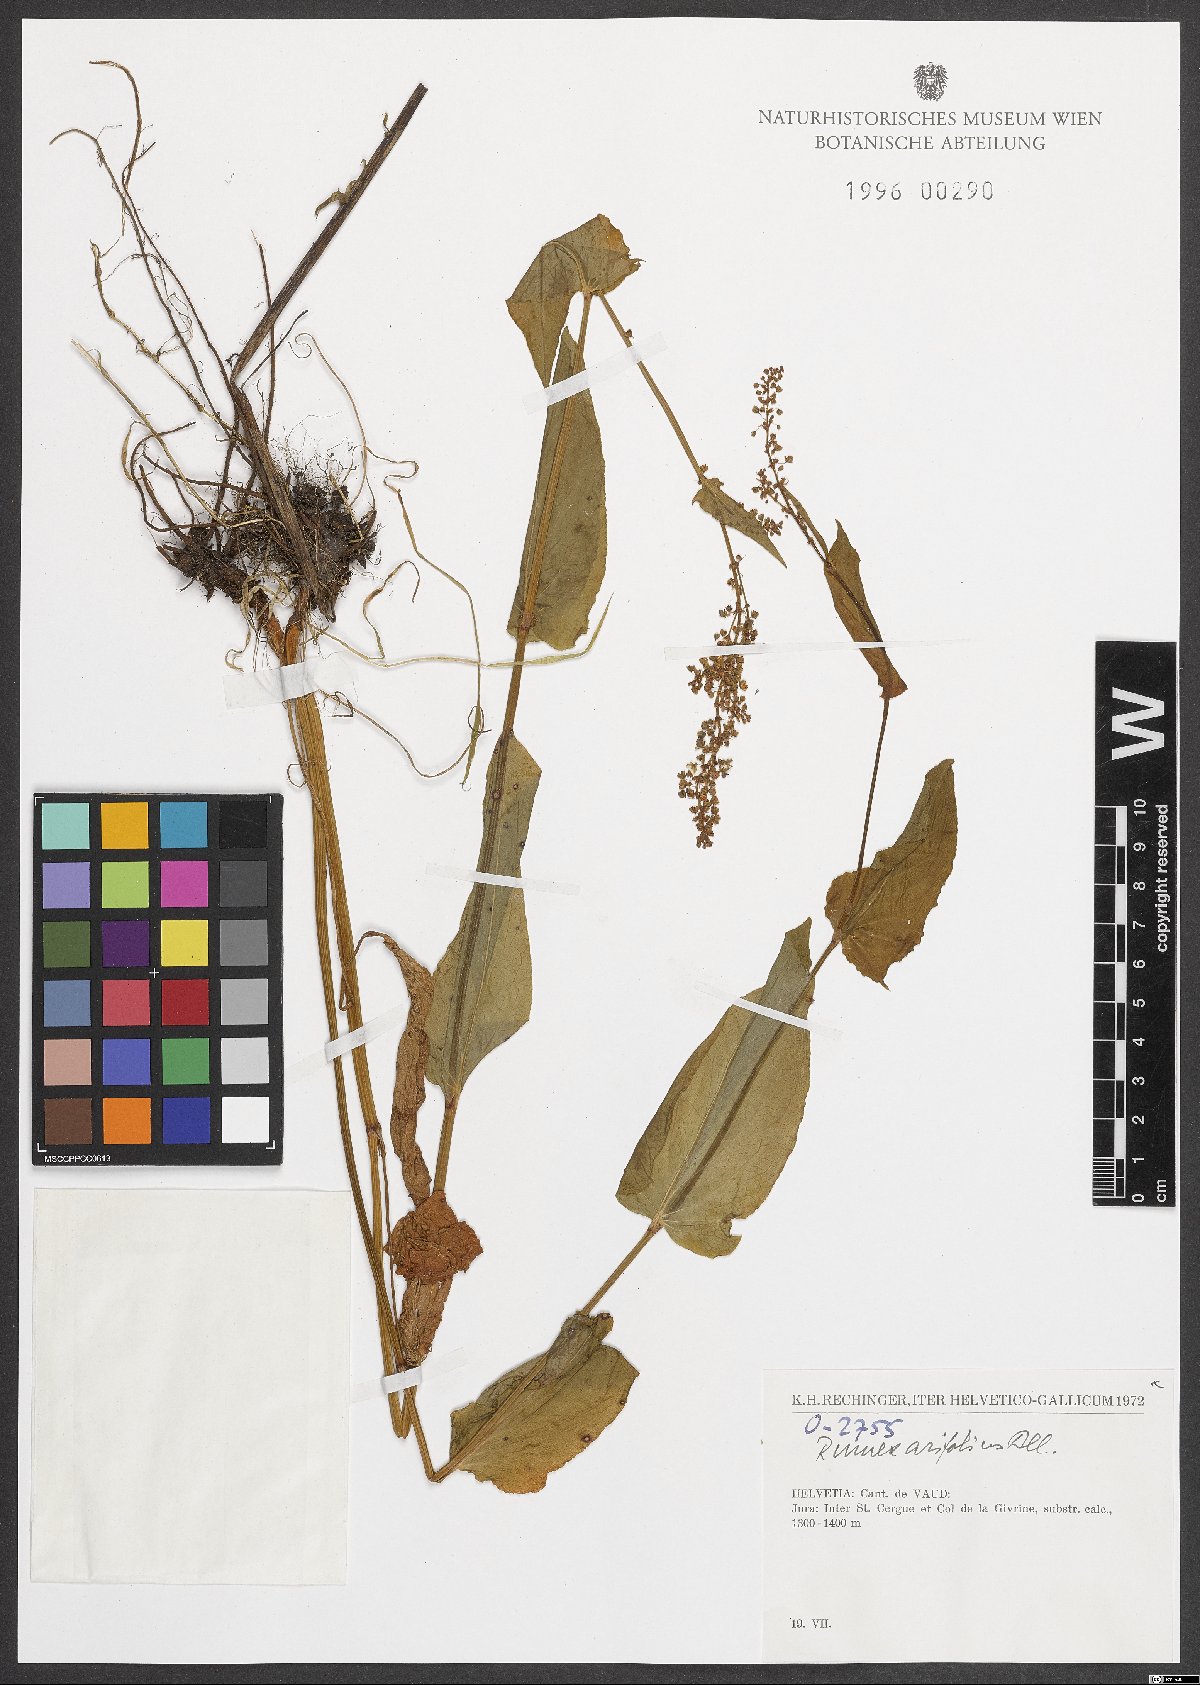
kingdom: Plantae
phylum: Tracheophyta
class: Magnoliopsida
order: Caryophyllales
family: Polygonaceae
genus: Rumex
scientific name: Rumex arifolius
